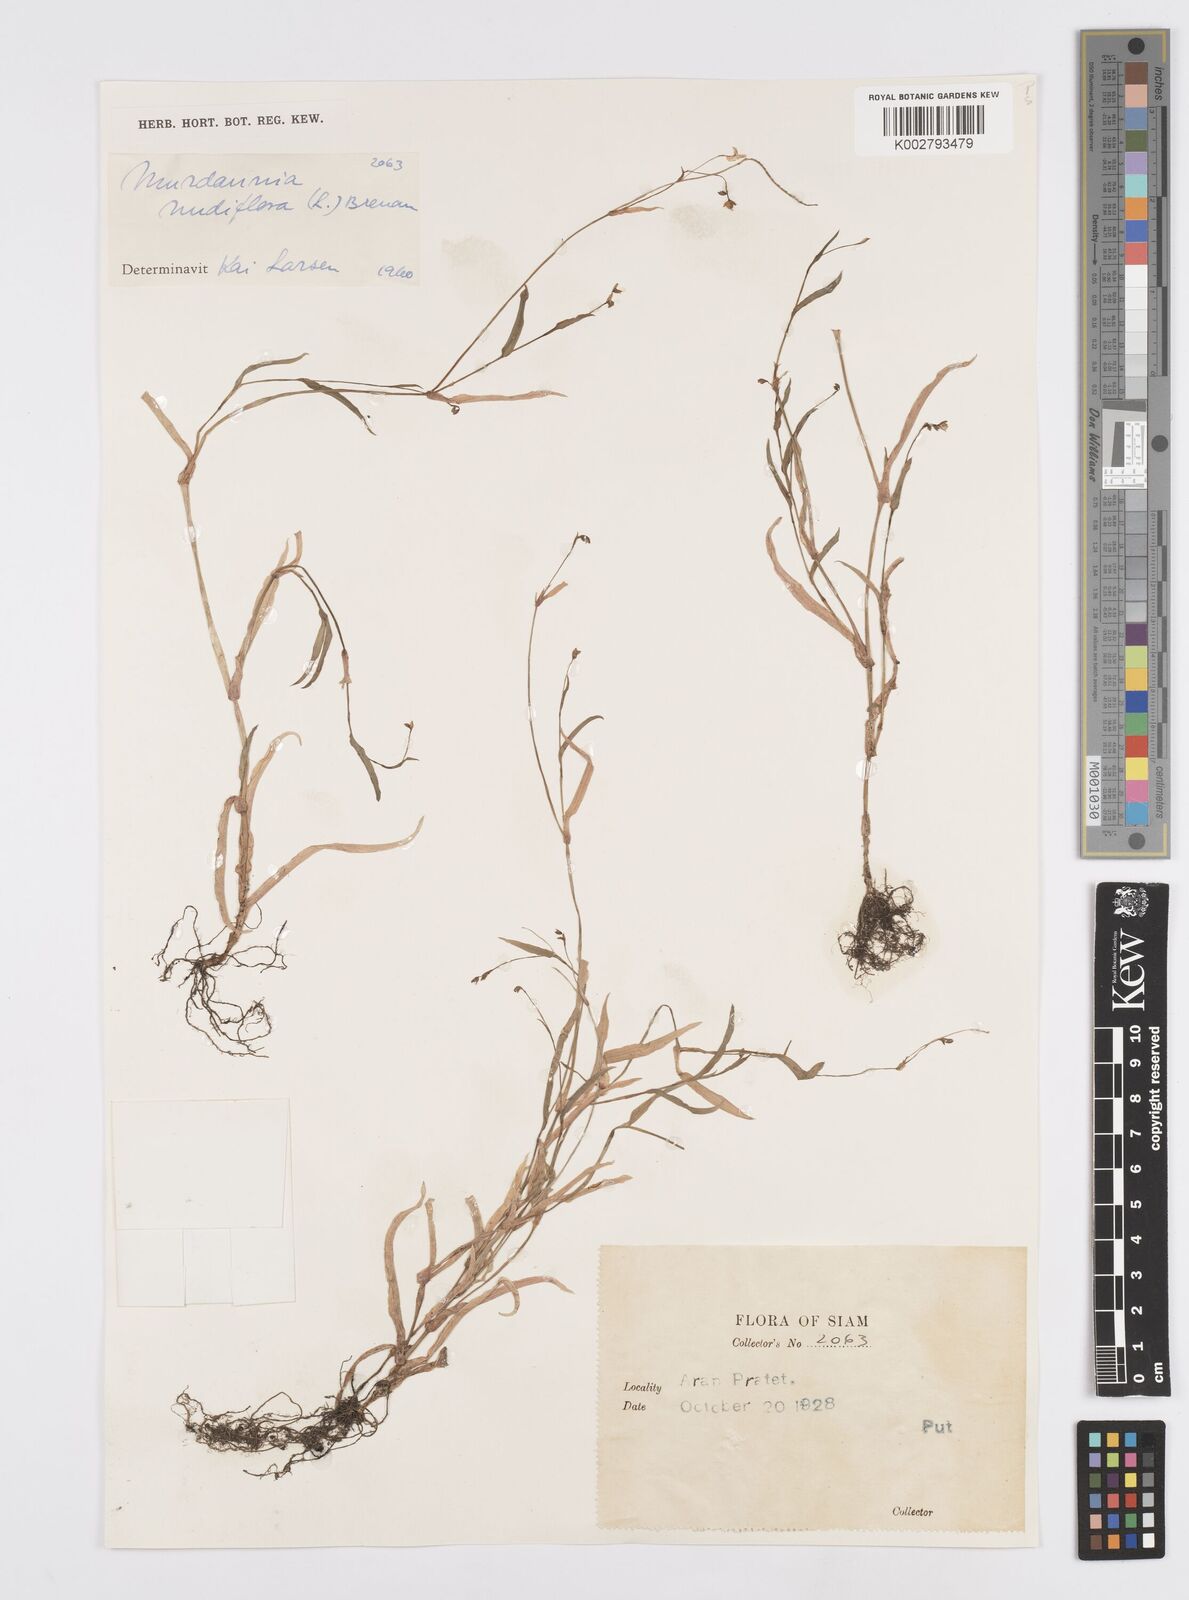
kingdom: Plantae
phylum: Tracheophyta
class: Liliopsida
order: Commelinales
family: Commelinaceae
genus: Murdannia
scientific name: Murdannia nudiflora
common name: Nakedstem dewflower
